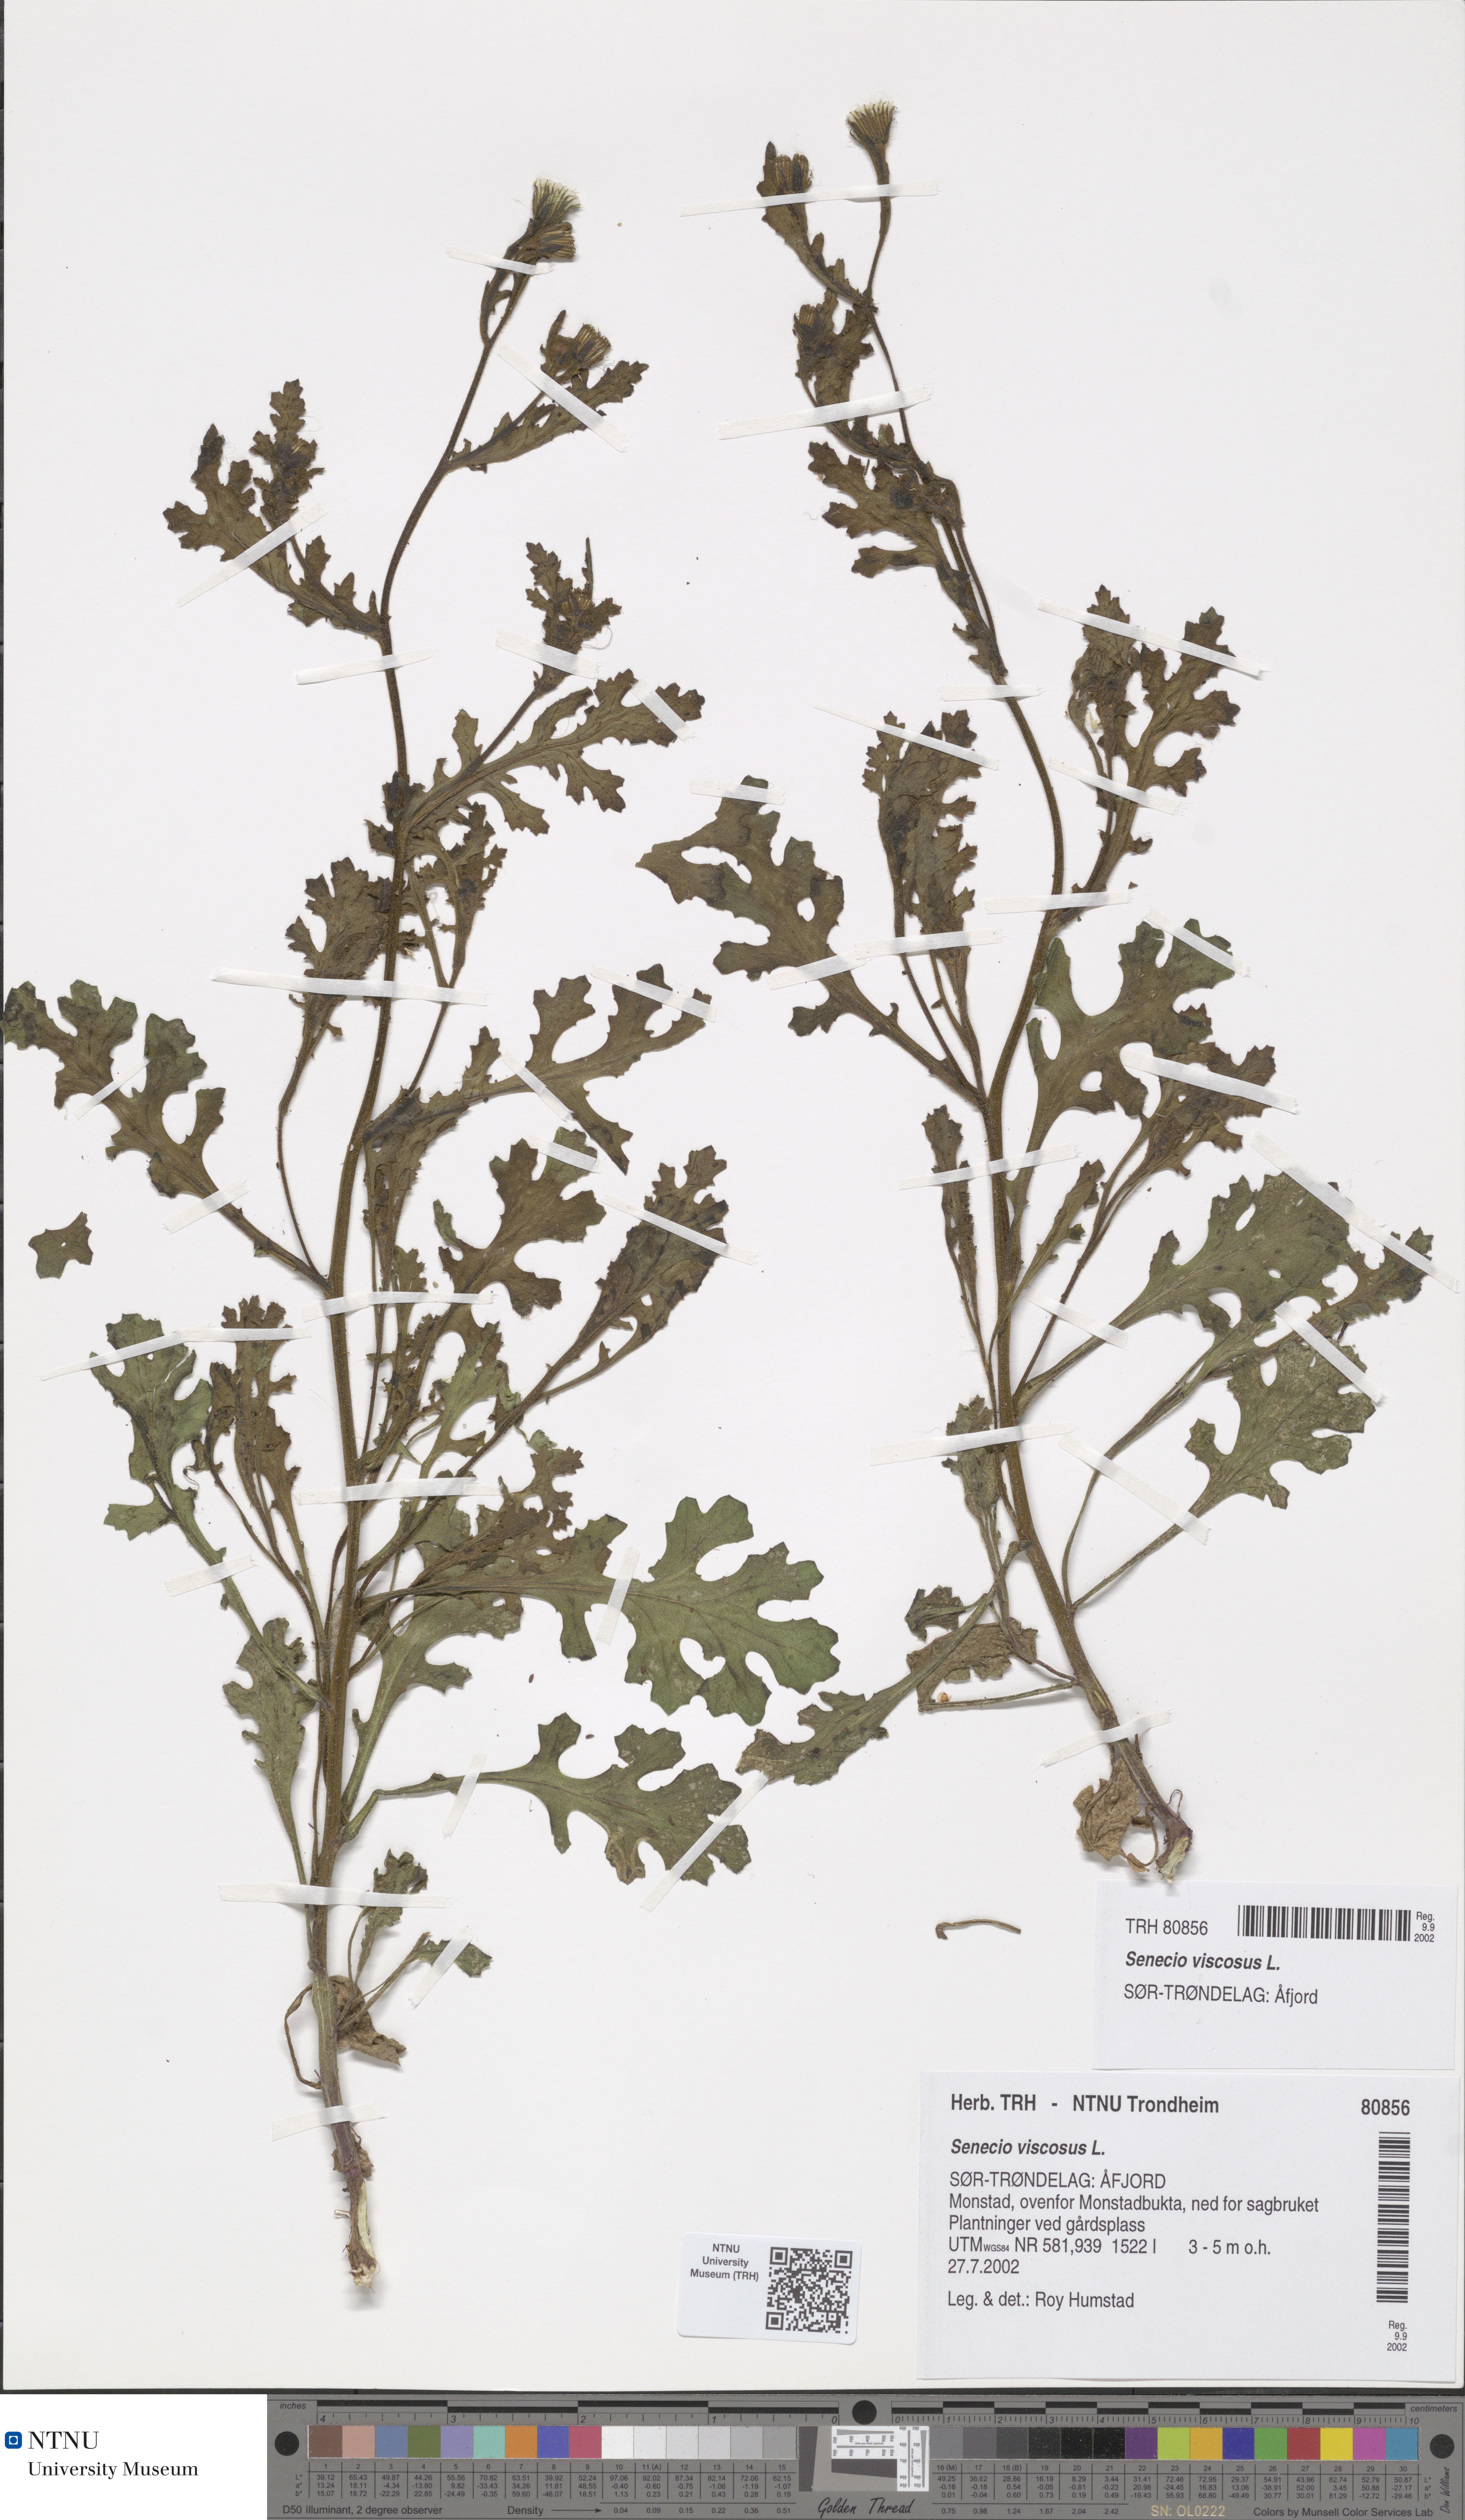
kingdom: Plantae
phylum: Tracheophyta
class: Magnoliopsida
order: Asterales
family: Asteraceae
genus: Senecio
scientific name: Senecio viscosus
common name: Sticky groundsel
